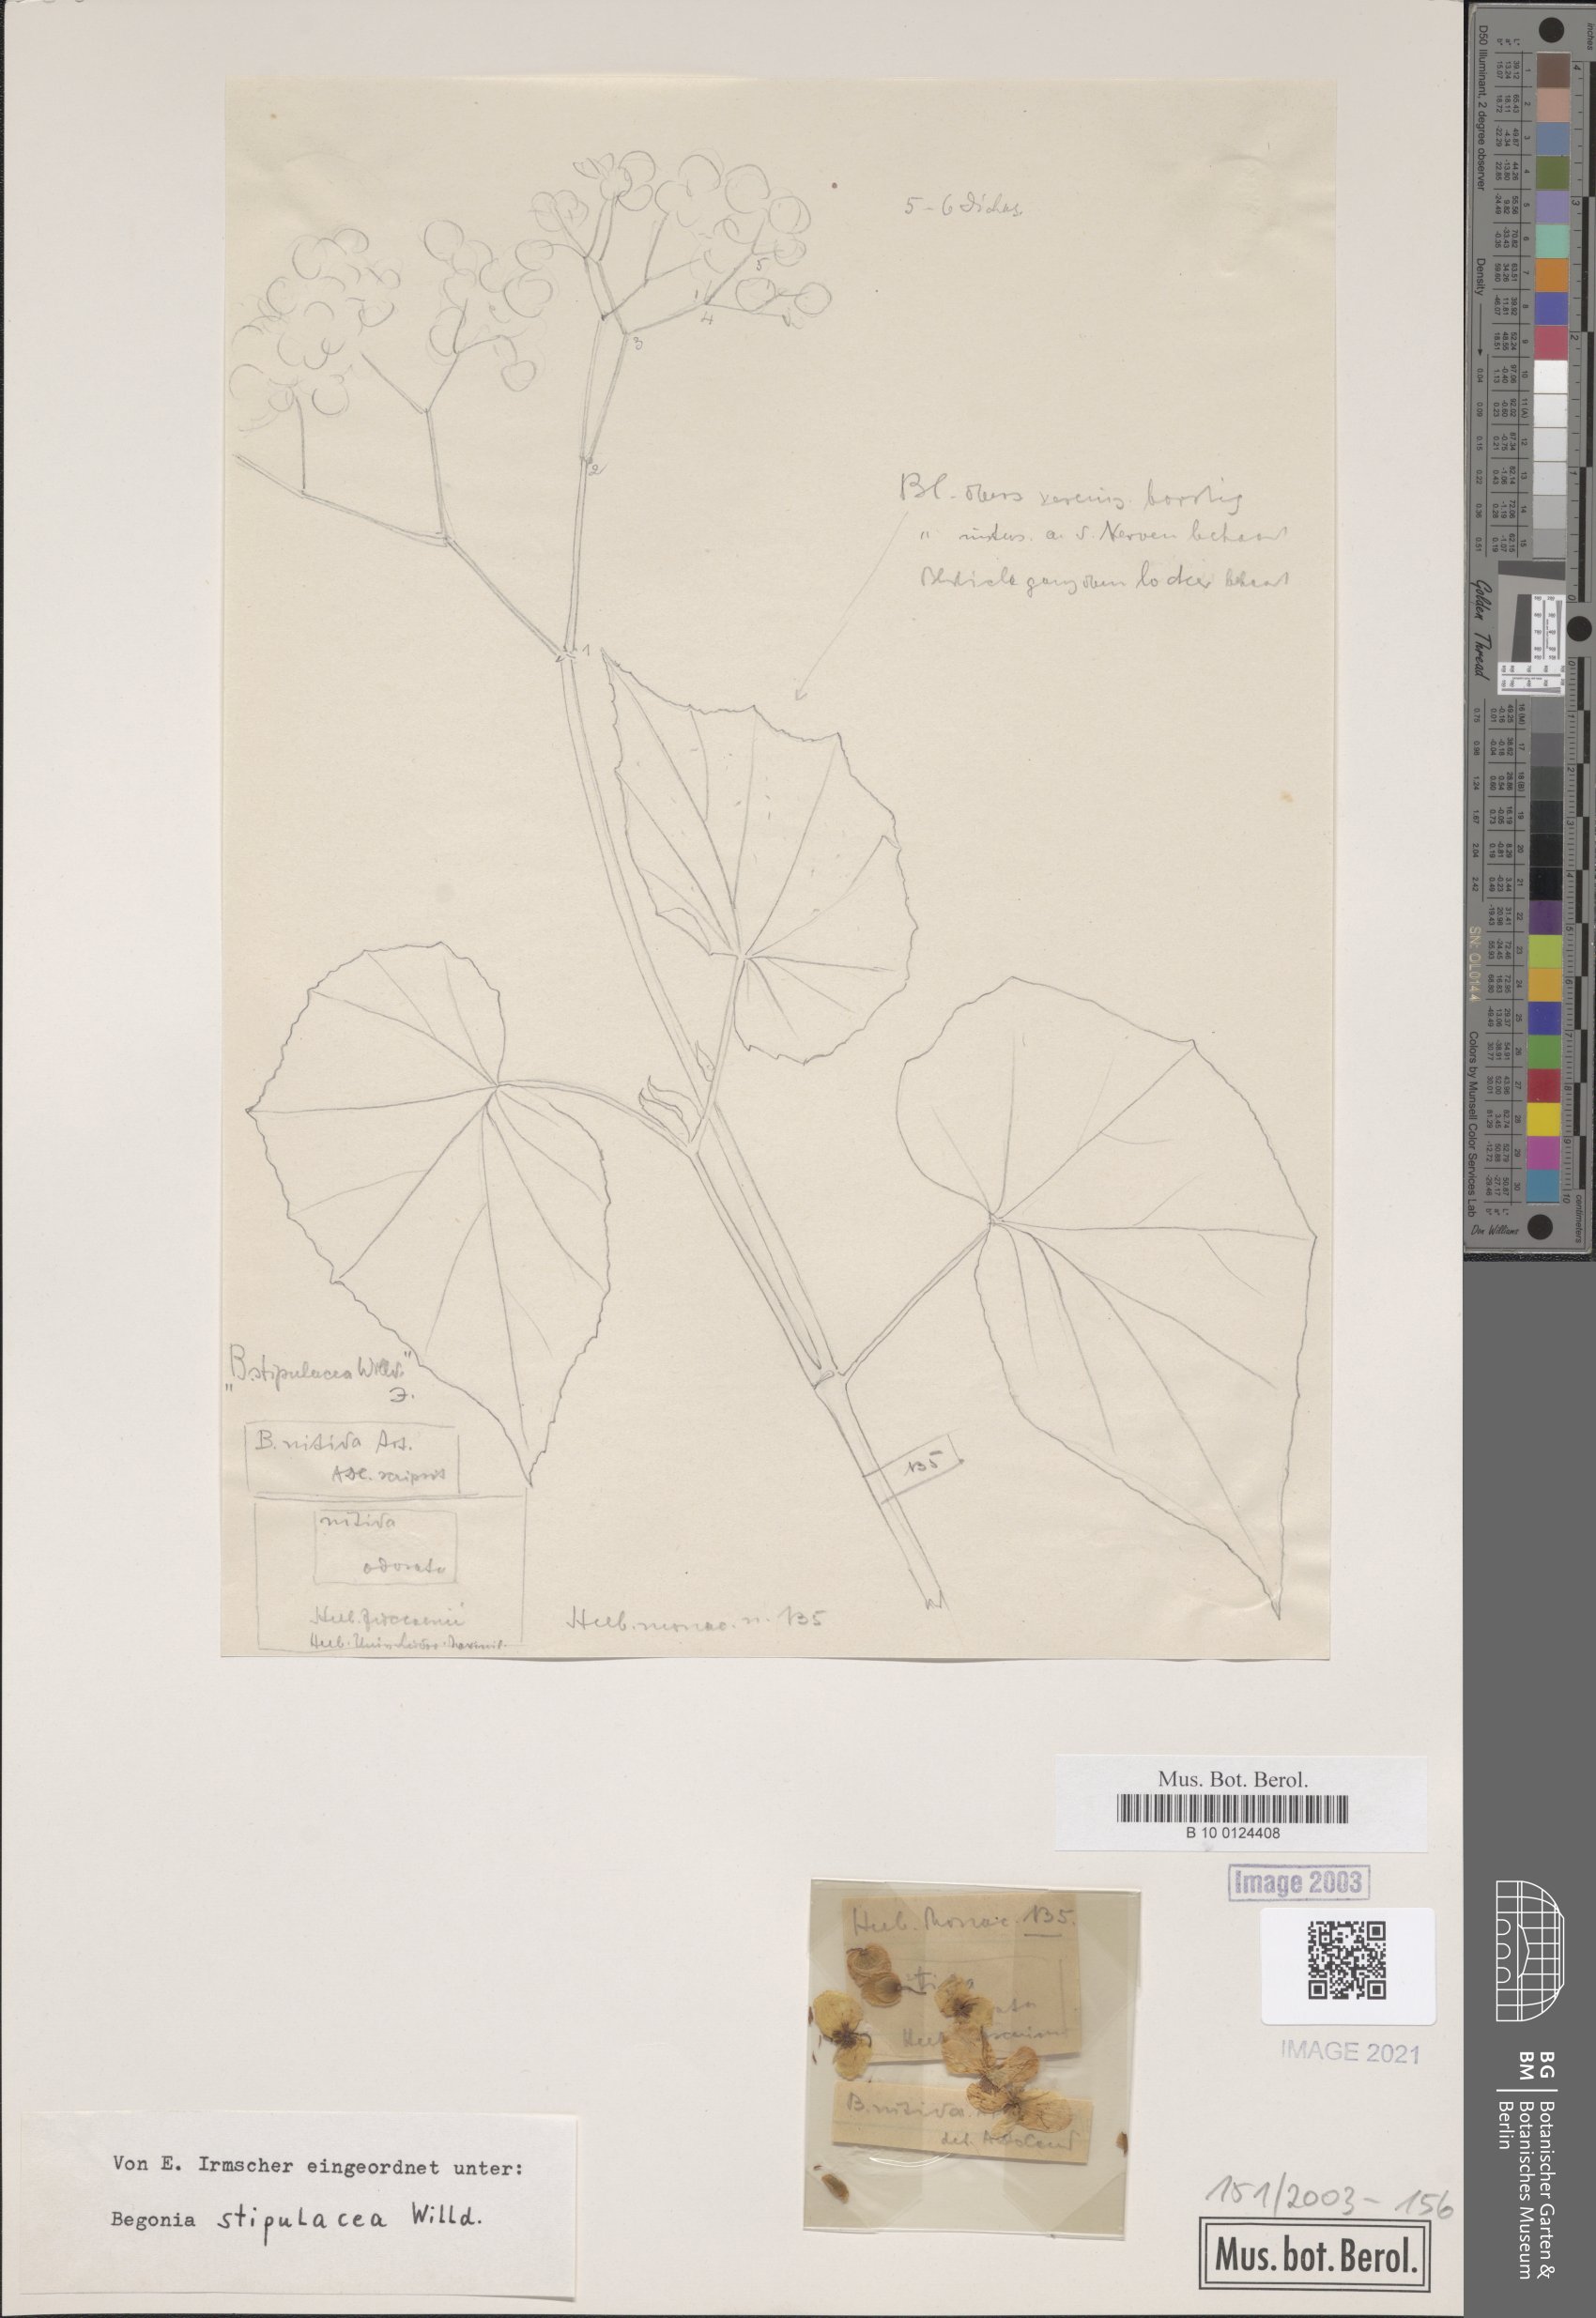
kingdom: Plantae
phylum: Tracheophyta
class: Magnoliopsida
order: Cucurbitales
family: Begoniaceae
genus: Begonia
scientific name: Begonia stipularis
